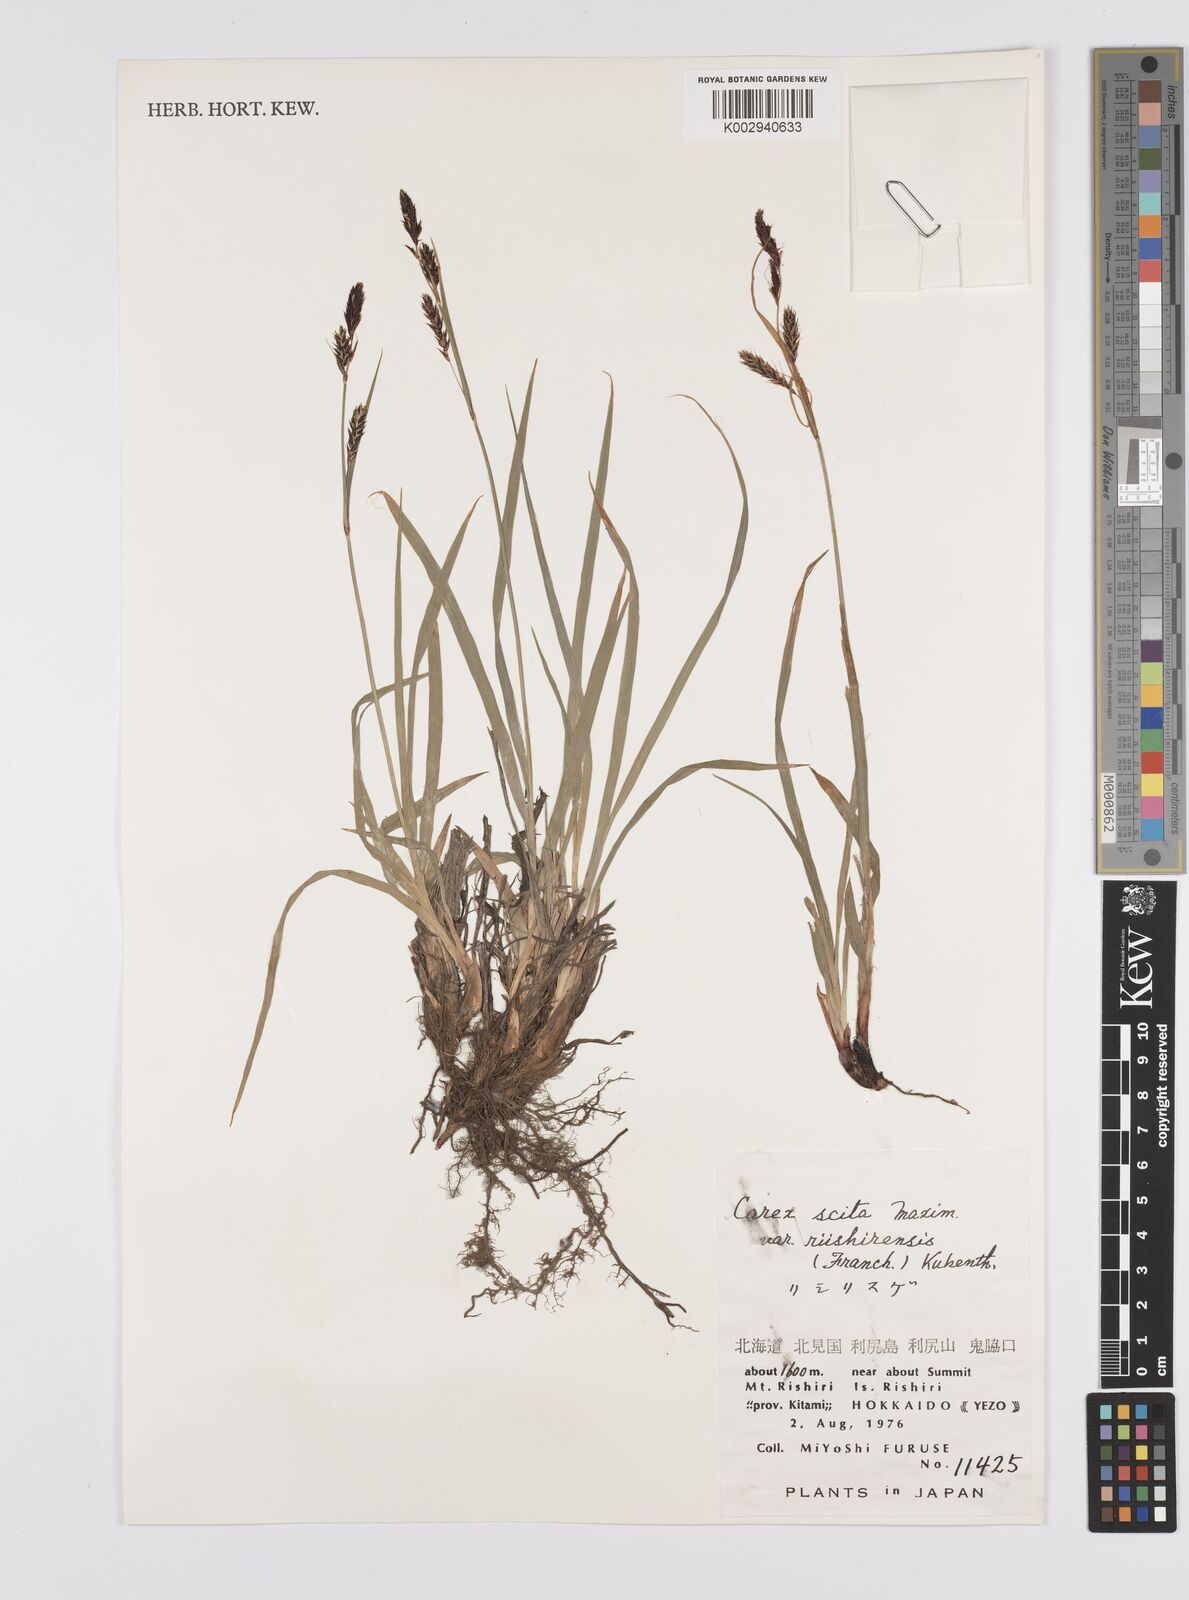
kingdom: Plantae
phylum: Tracheophyta
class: Liliopsida
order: Poales
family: Cyperaceae
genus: Carex
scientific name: Carex scita
